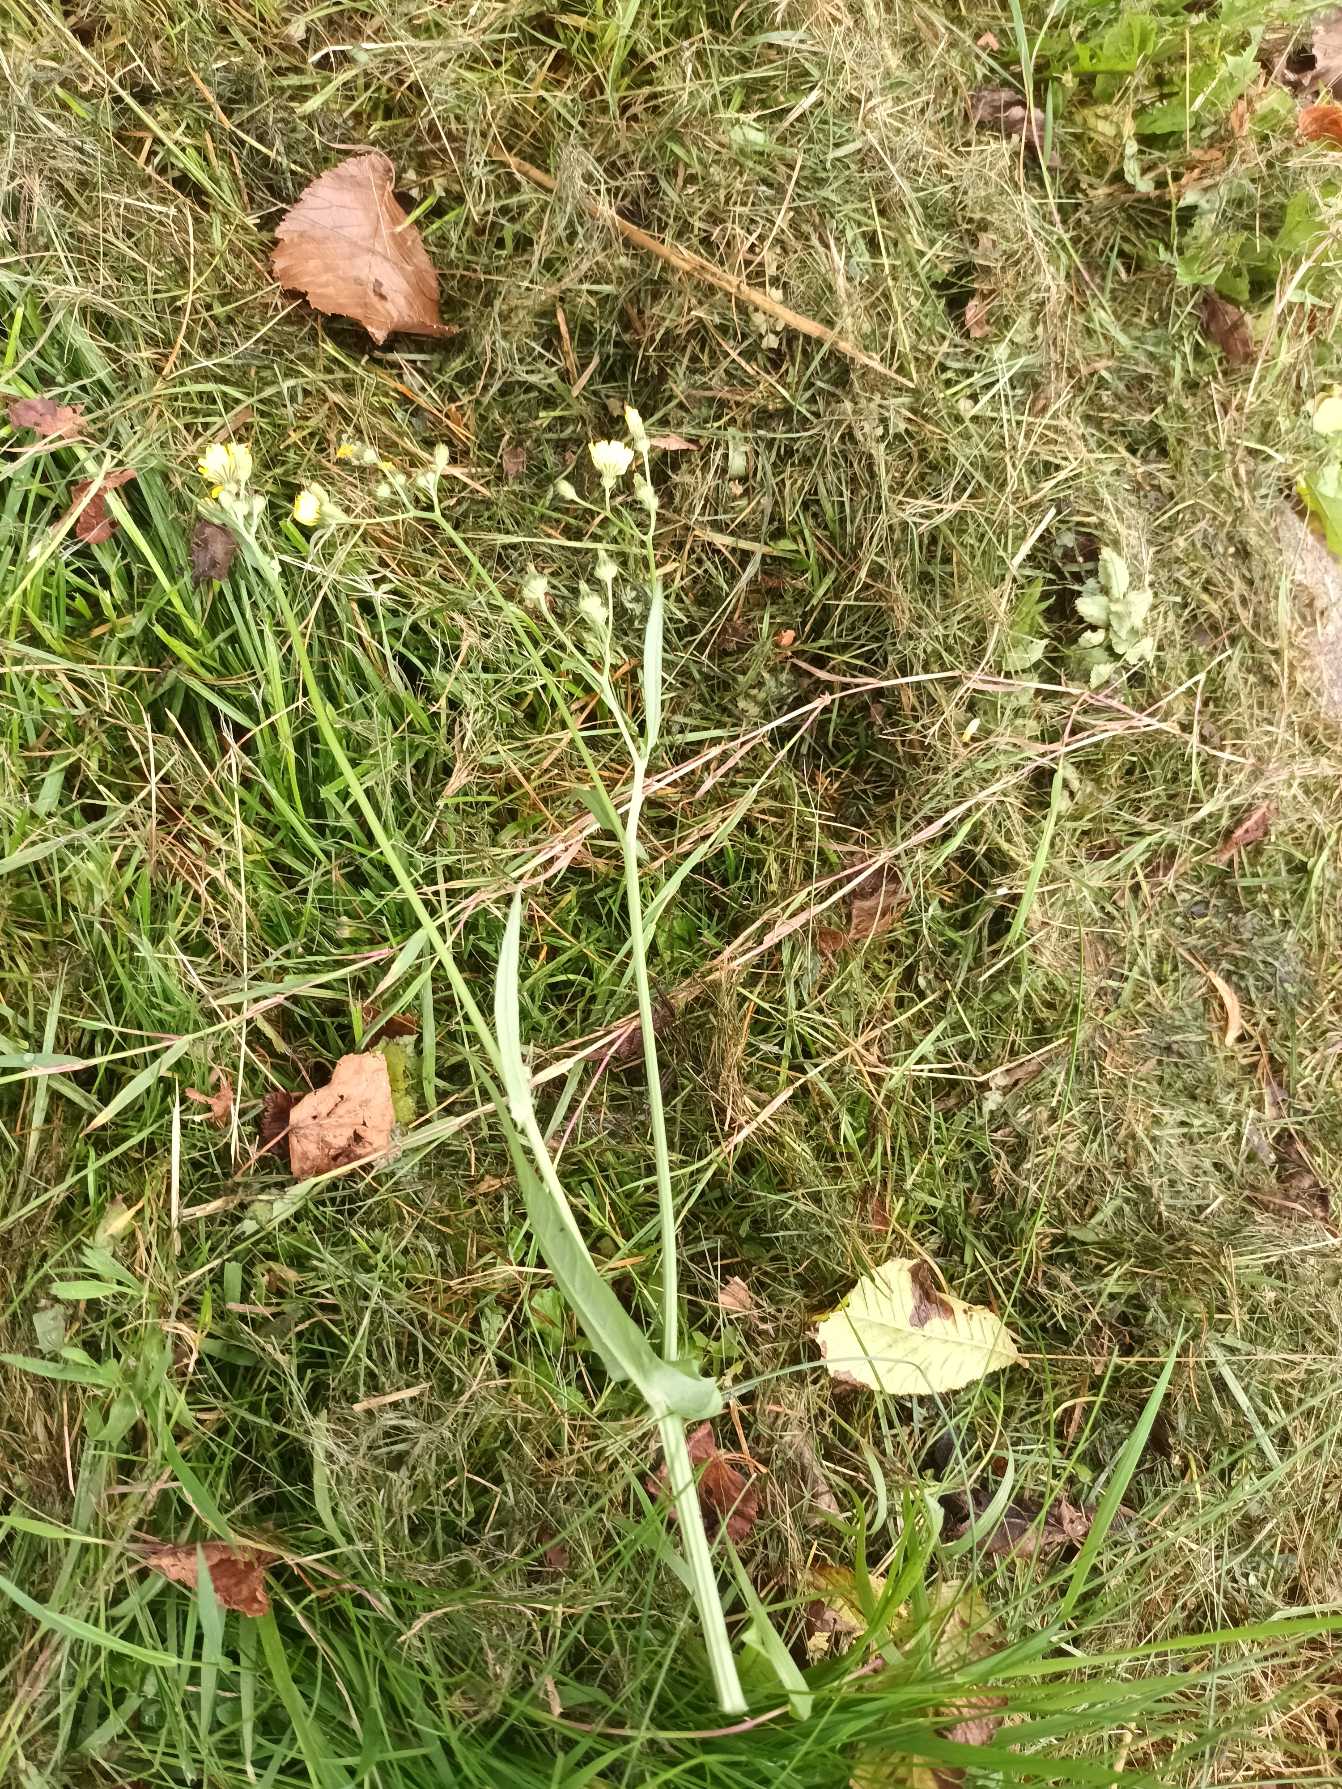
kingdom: Plantae
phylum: Tracheophyta
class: Magnoliopsida
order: Asterales
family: Asteraceae
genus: Crepis
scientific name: Crepis capillaris
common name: Grøn høgeskæg
